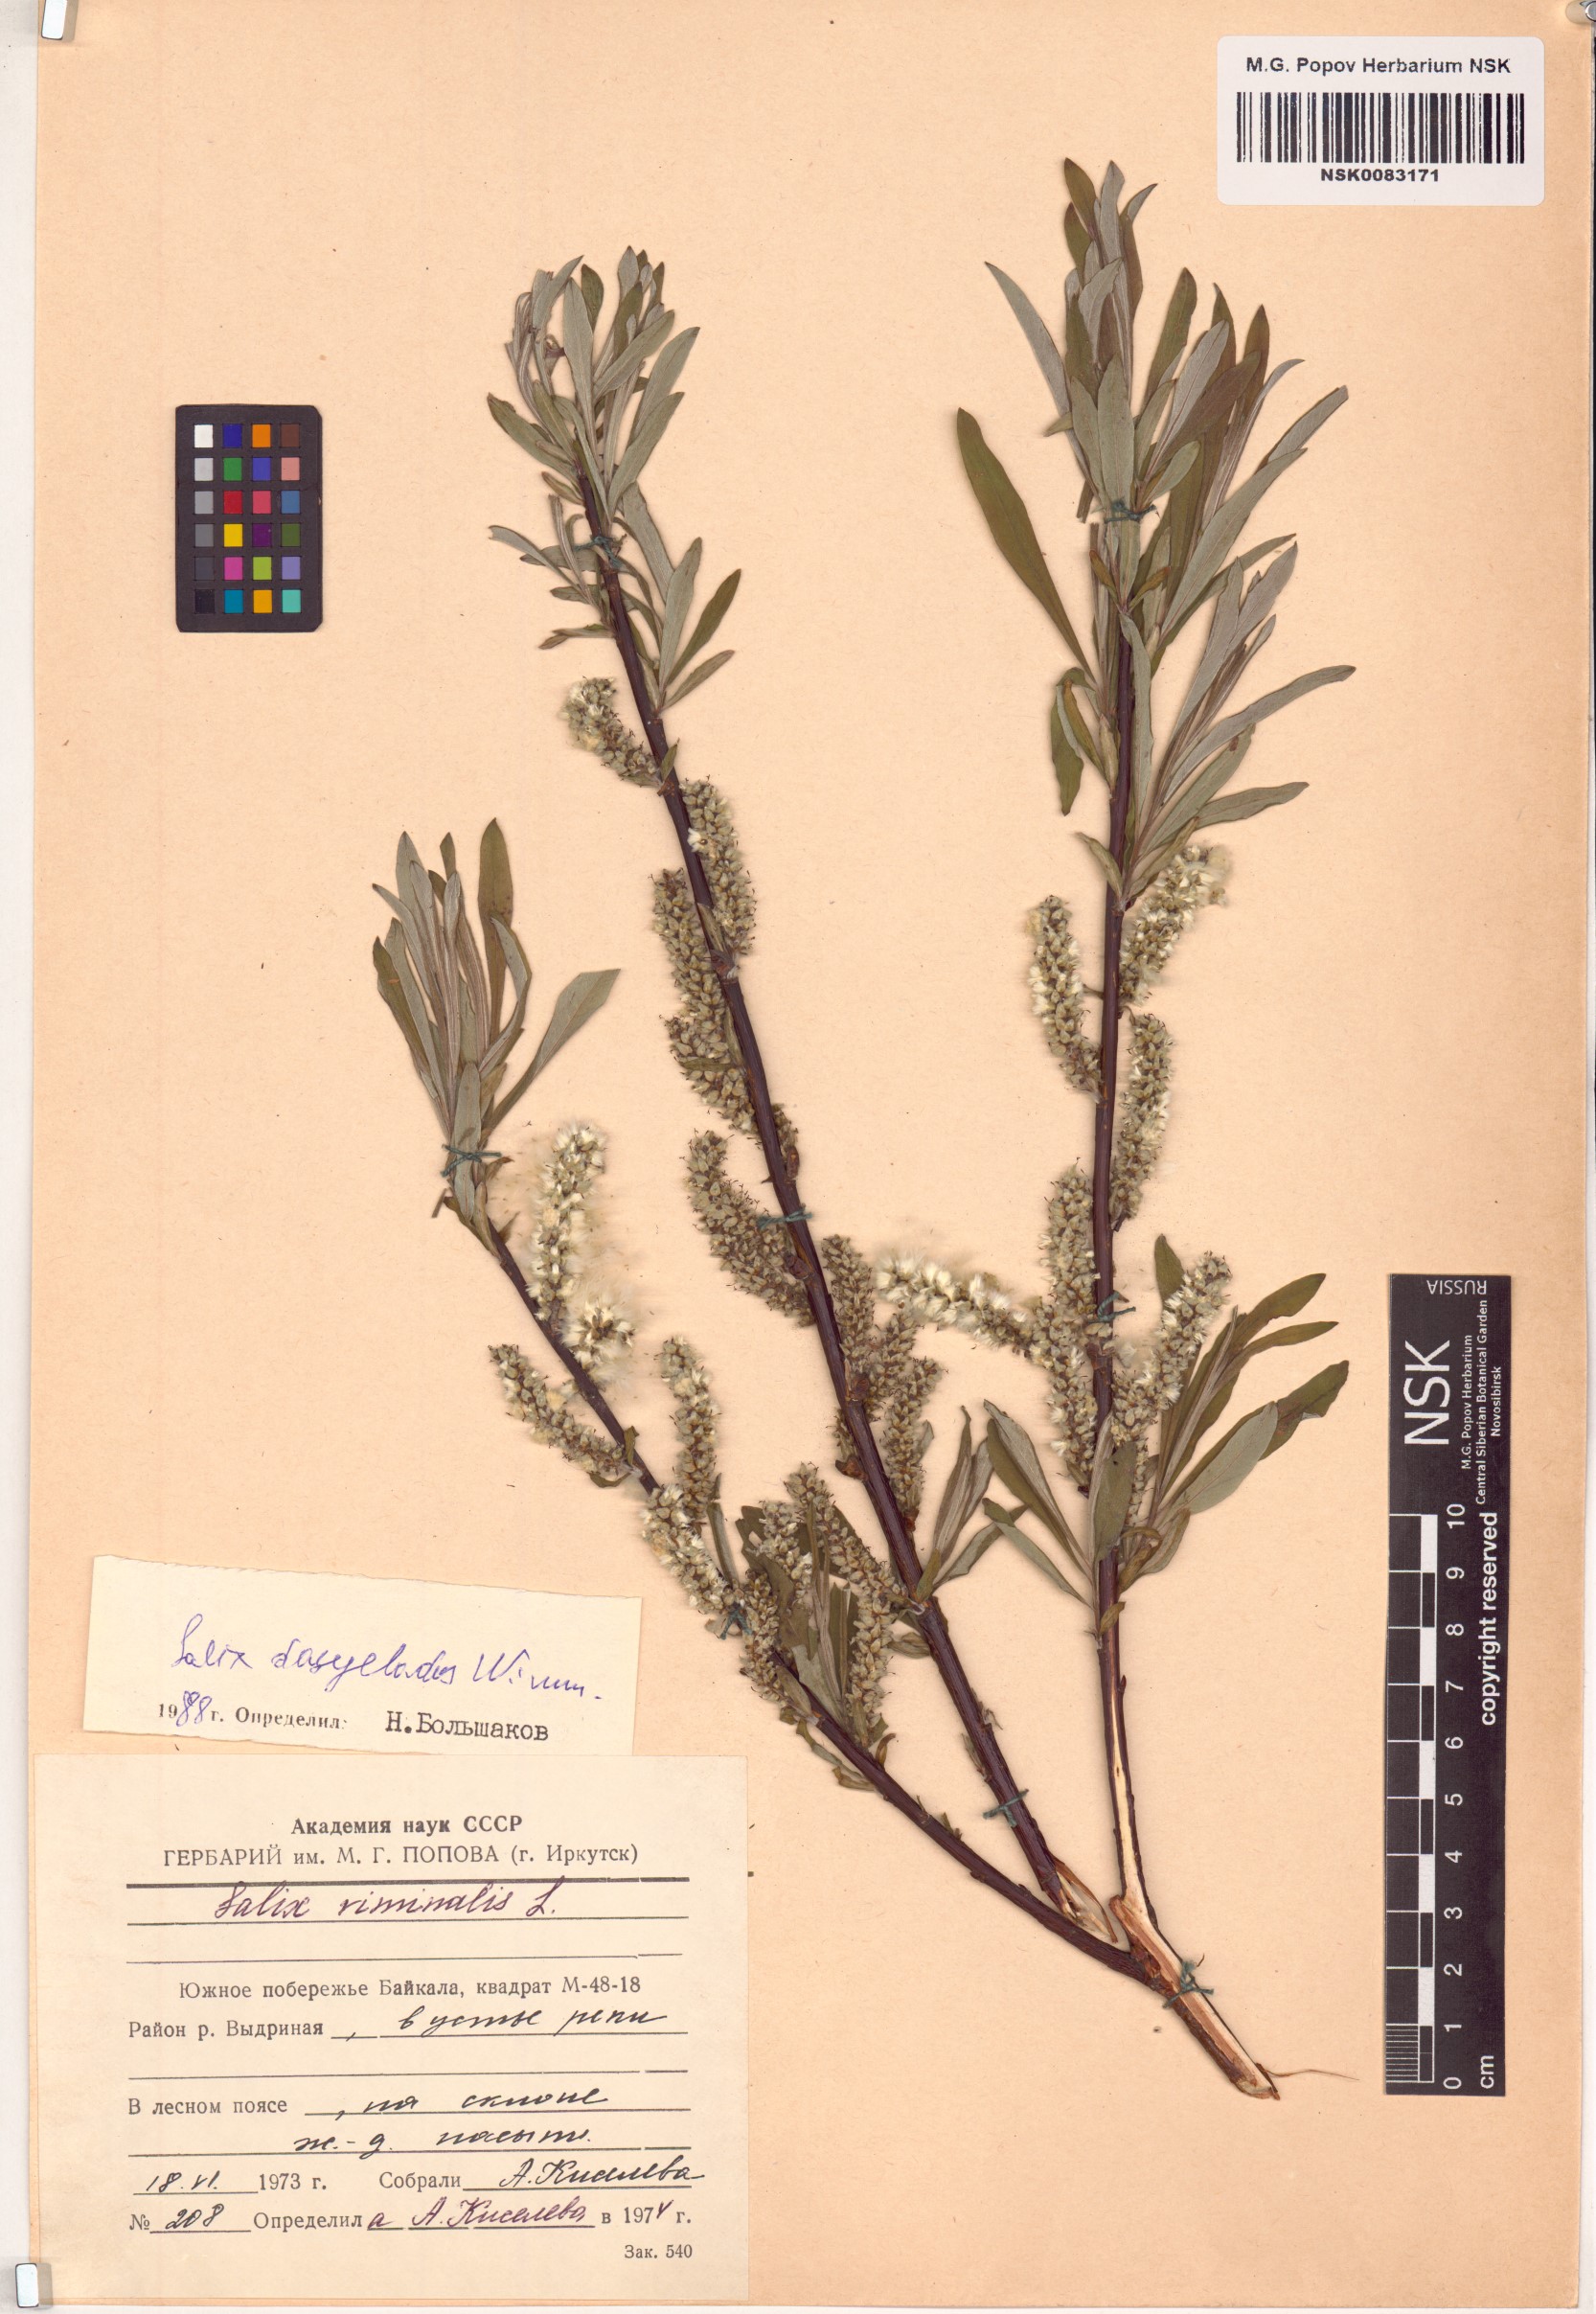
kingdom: Plantae
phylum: Tracheophyta
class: Magnoliopsida
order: Malpighiales
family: Salicaceae
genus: Salix
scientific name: Salix gmelinii
